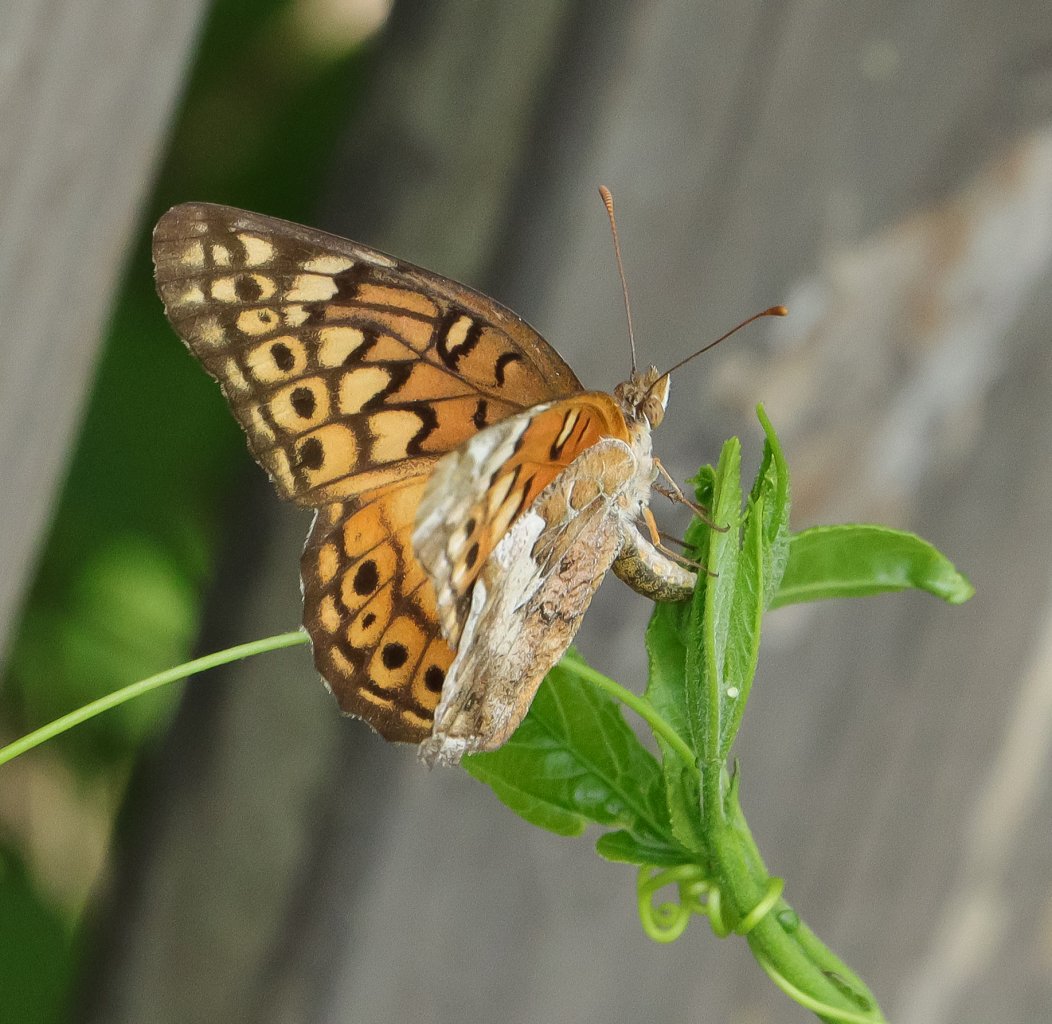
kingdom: Animalia
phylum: Arthropoda
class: Insecta
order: Lepidoptera
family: Nymphalidae
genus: Euptoieta
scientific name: Euptoieta claudia
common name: Variegated Fritillary
